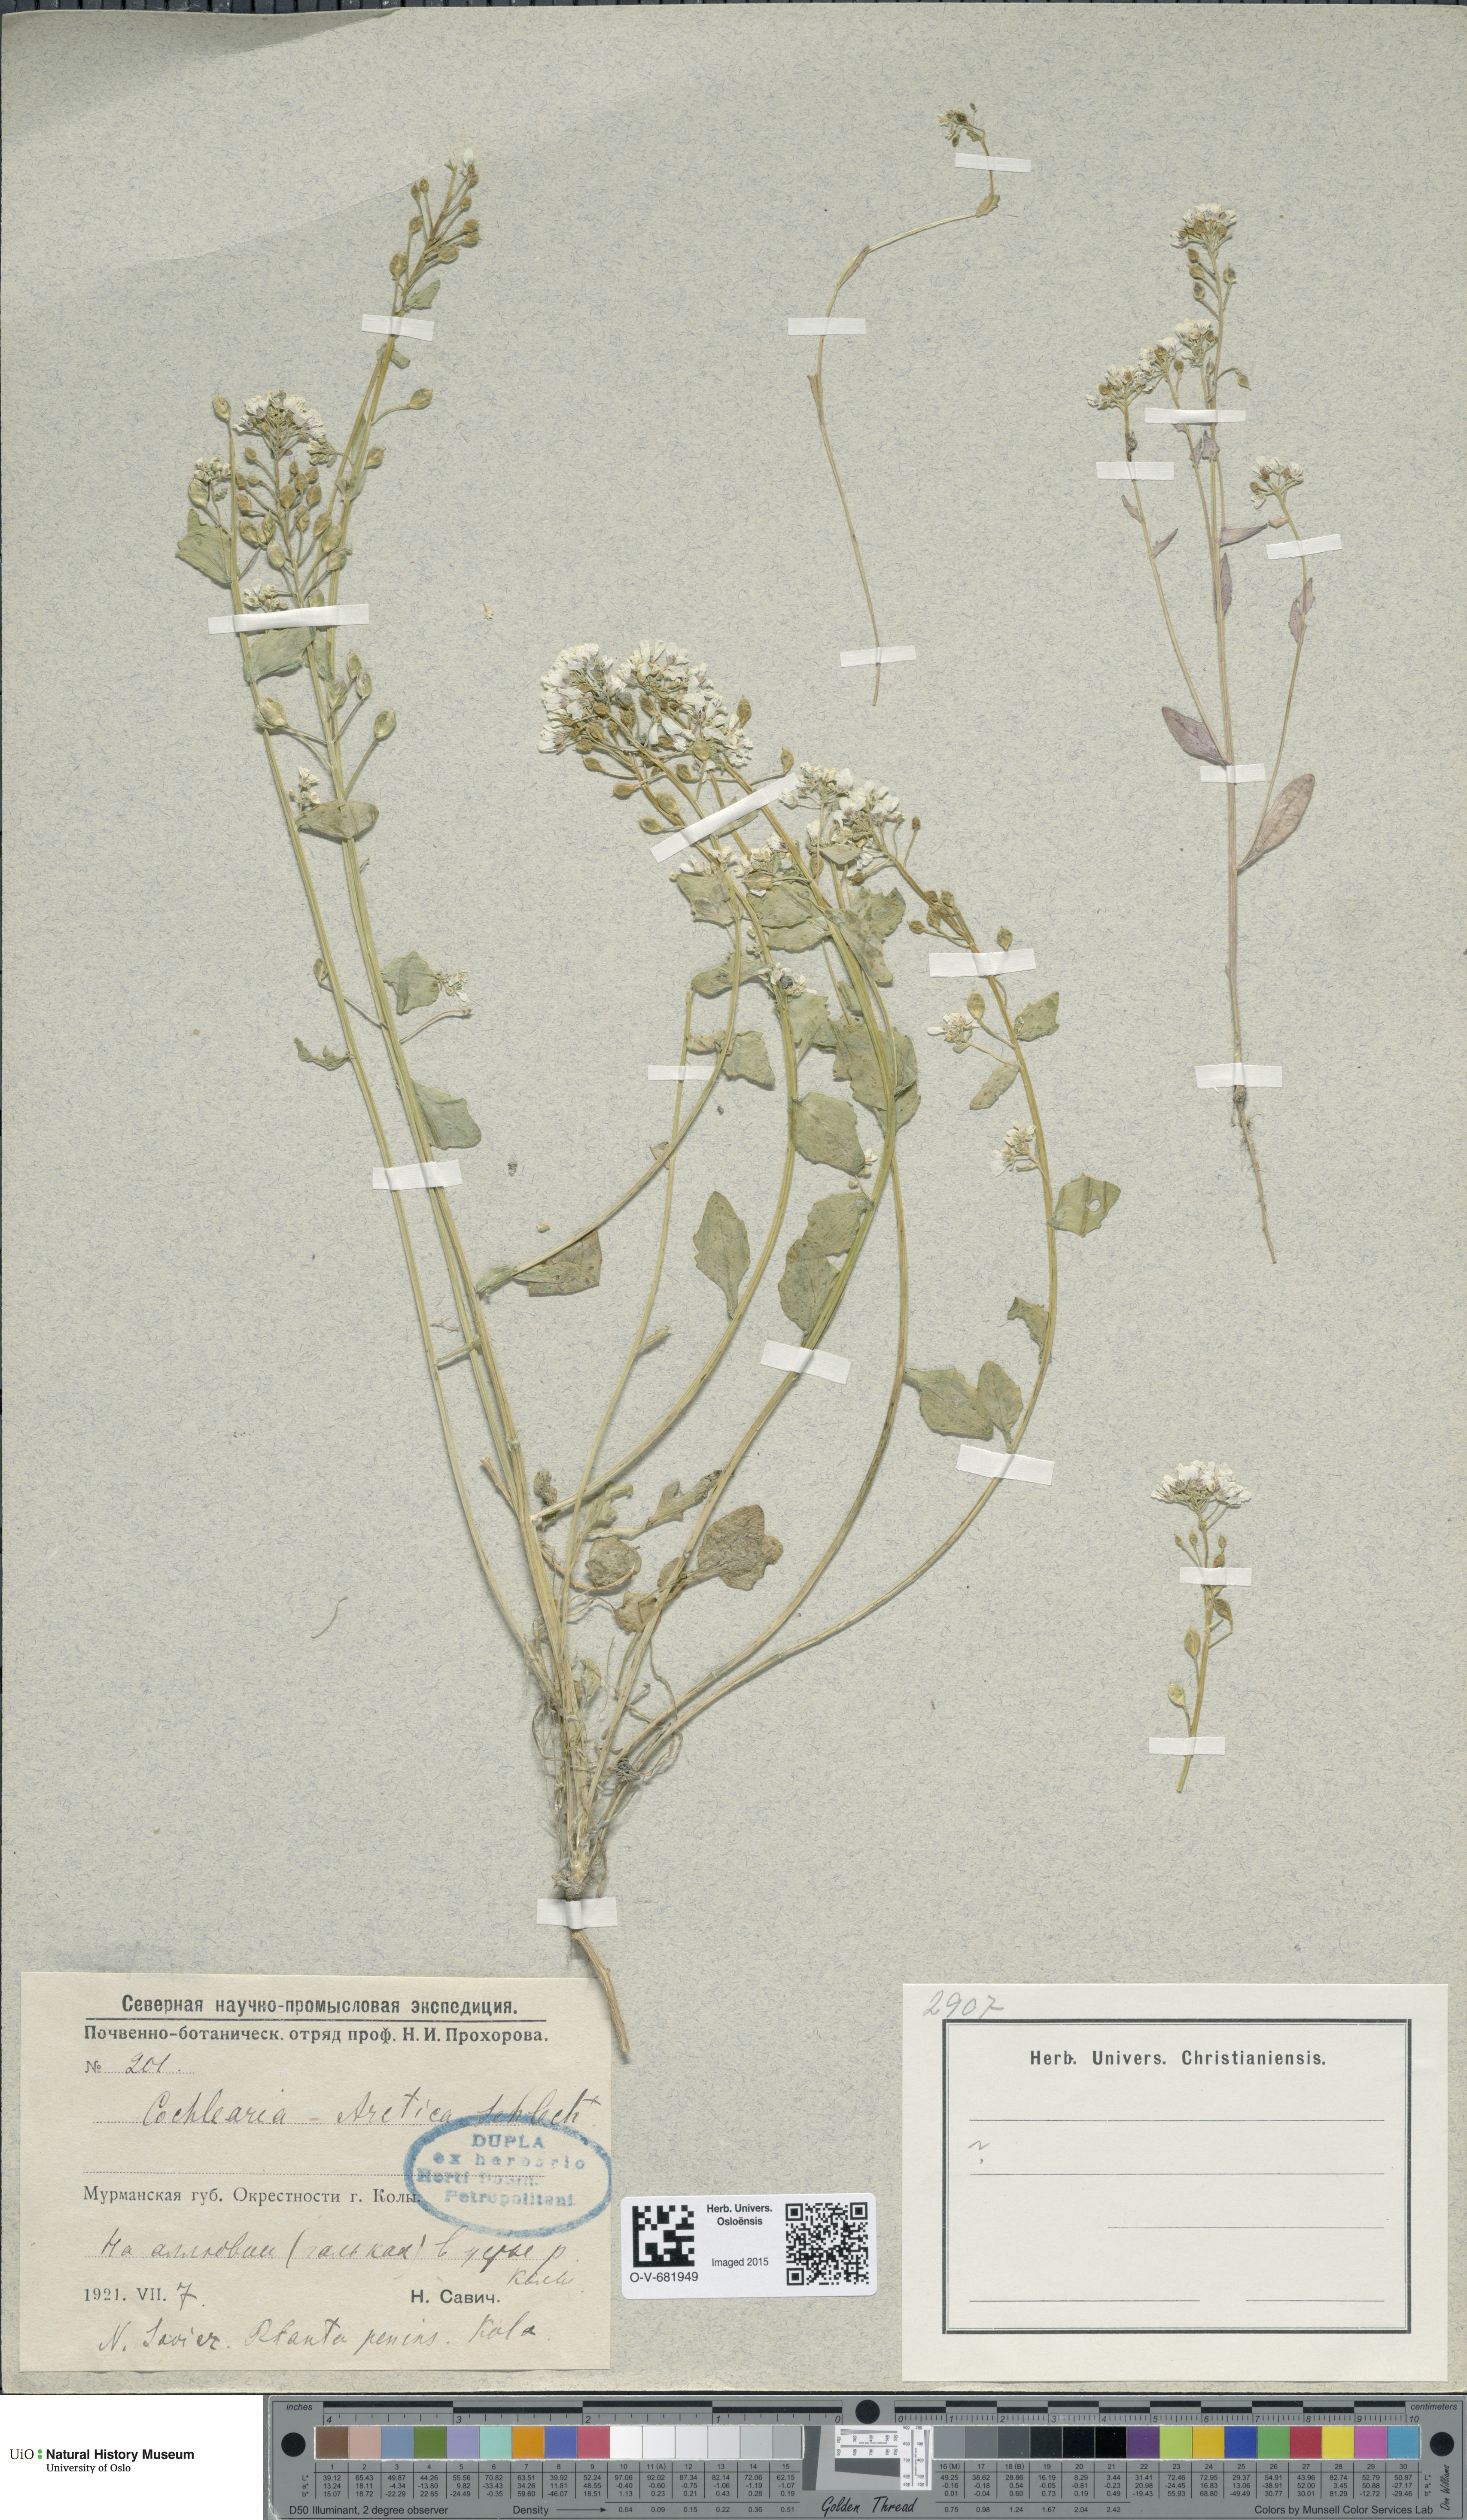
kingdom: Plantae
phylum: Tracheophyta
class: Magnoliopsida
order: Brassicales
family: Brassicaceae
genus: Cochlearia
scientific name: Cochlearia arctica
